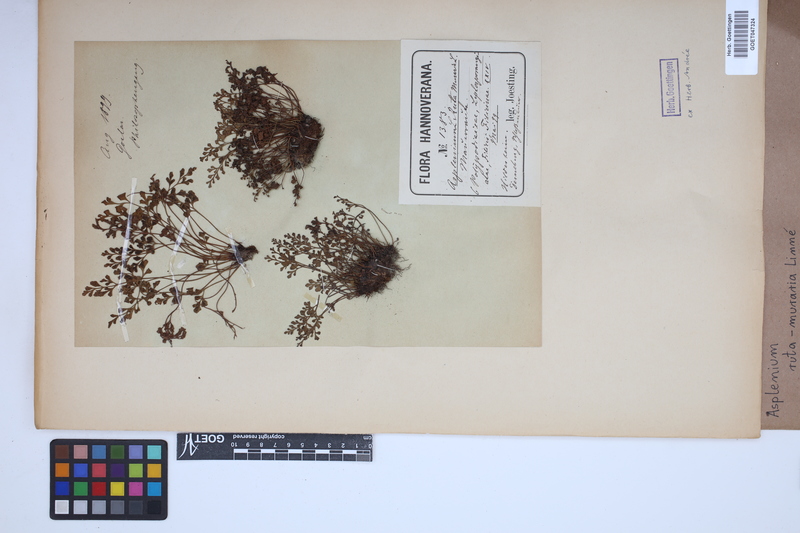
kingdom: Plantae
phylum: Tracheophyta
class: Polypodiopsida
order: Polypodiales
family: Aspleniaceae
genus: Asplenium
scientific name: Asplenium ruta-muraria
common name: Wall-rue
